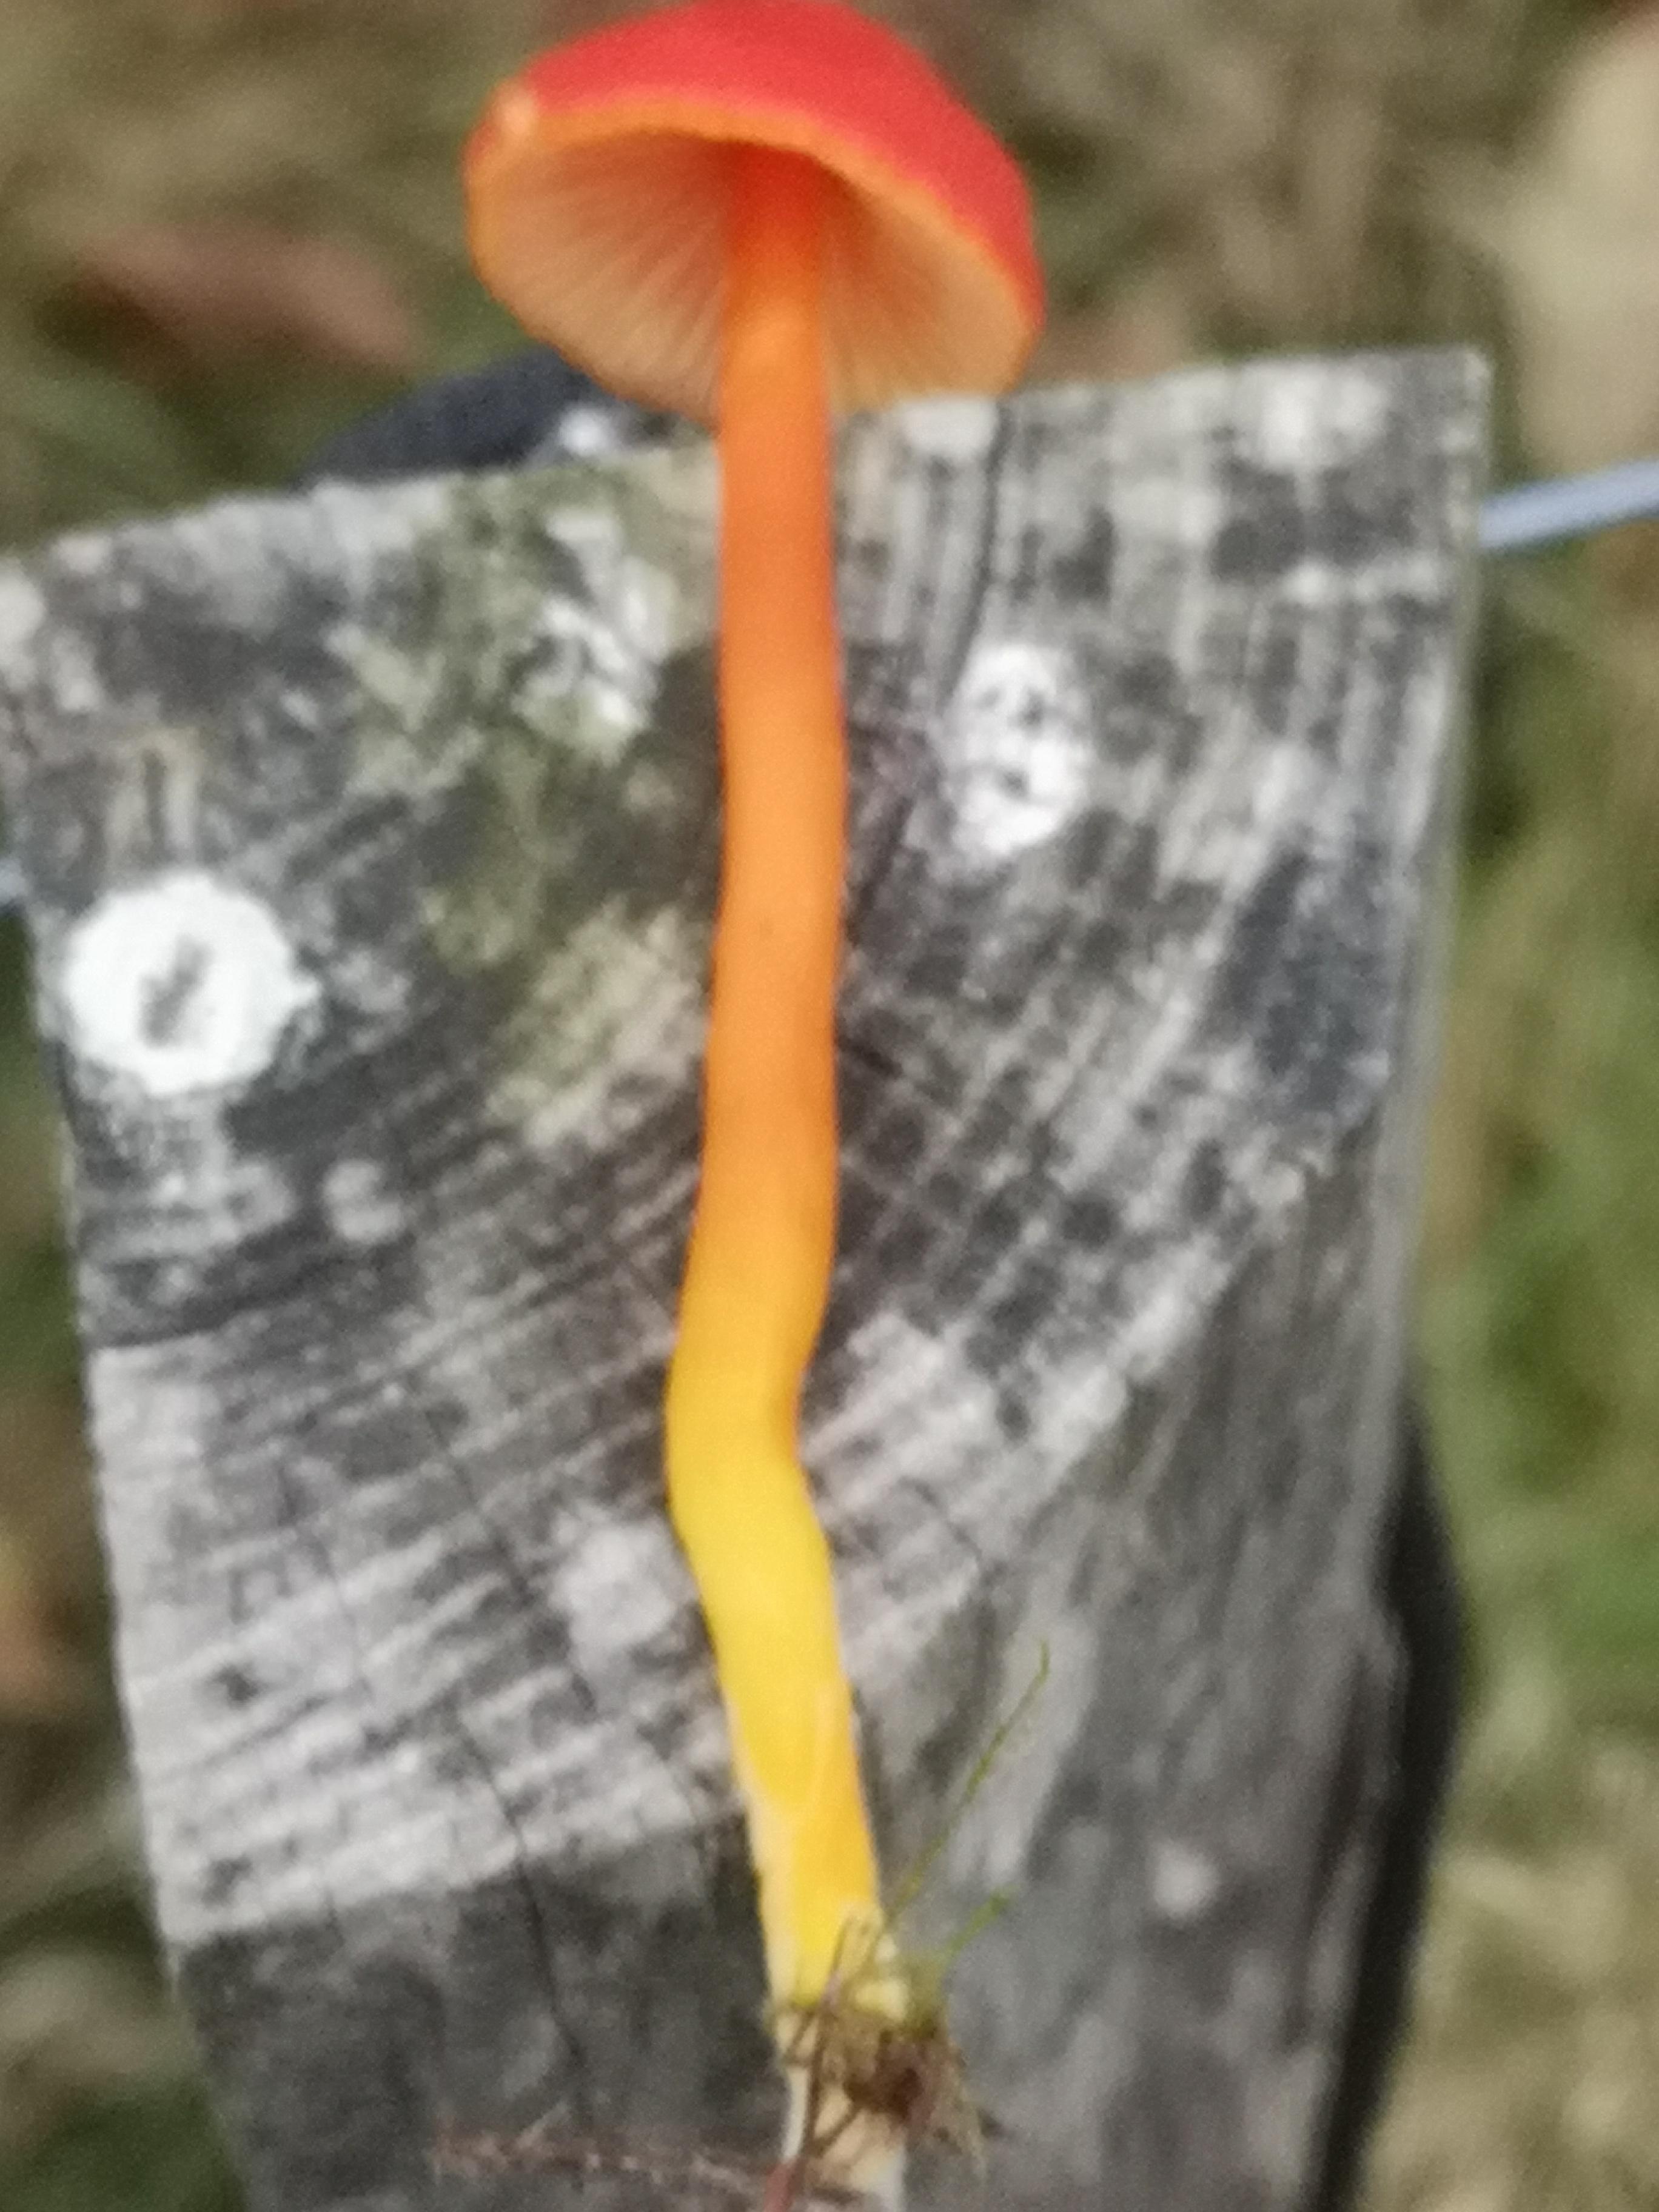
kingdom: Fungi
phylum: Basidiomycota
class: Agaricomycetes
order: Agaricales
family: Hygrophoraceae
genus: Hygrocybe
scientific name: Hygrocybe miniata
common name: mønje-vokshat
